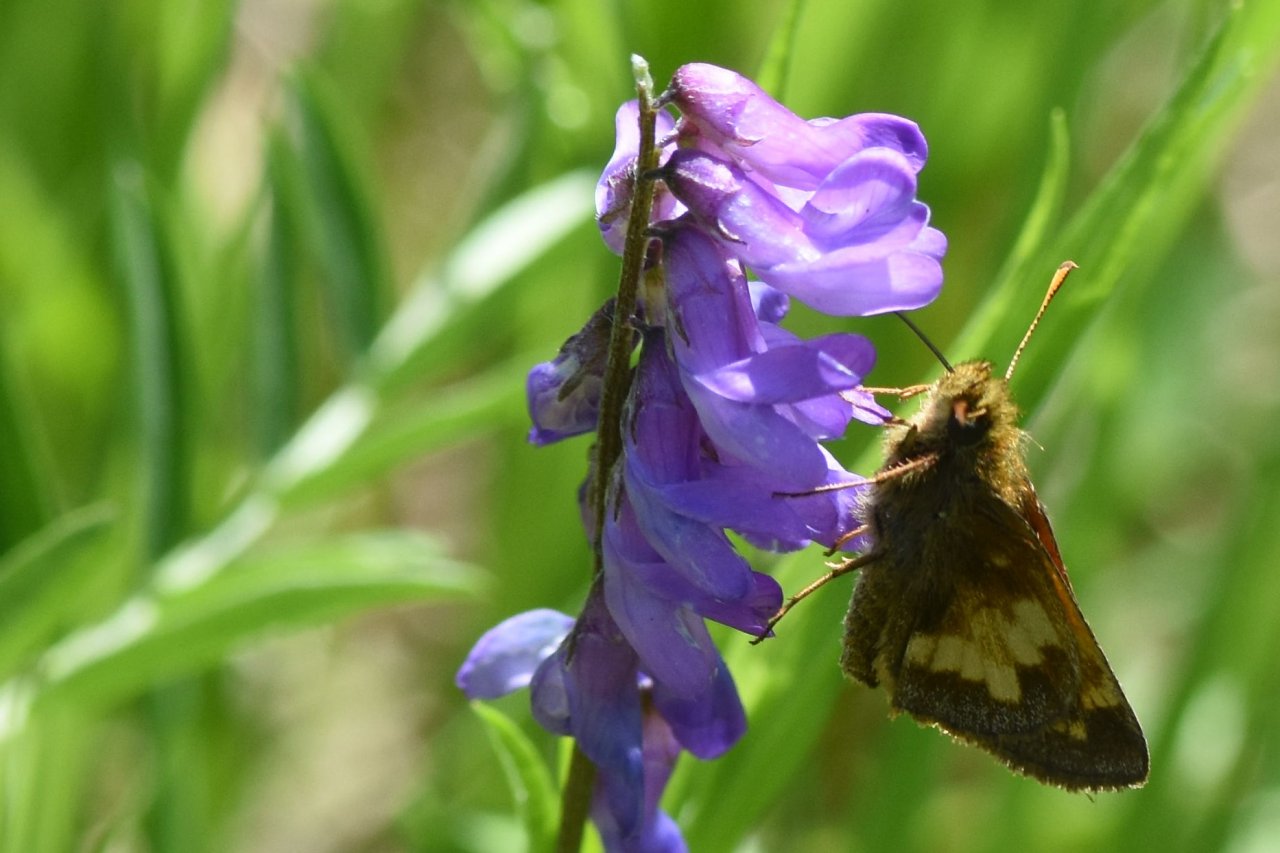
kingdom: Animalia
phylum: Arthropoda
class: Insecta
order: Lepidoptera
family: Hesperiidae
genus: Lon
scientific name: Lon hobomok
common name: Hobomok Skipper
